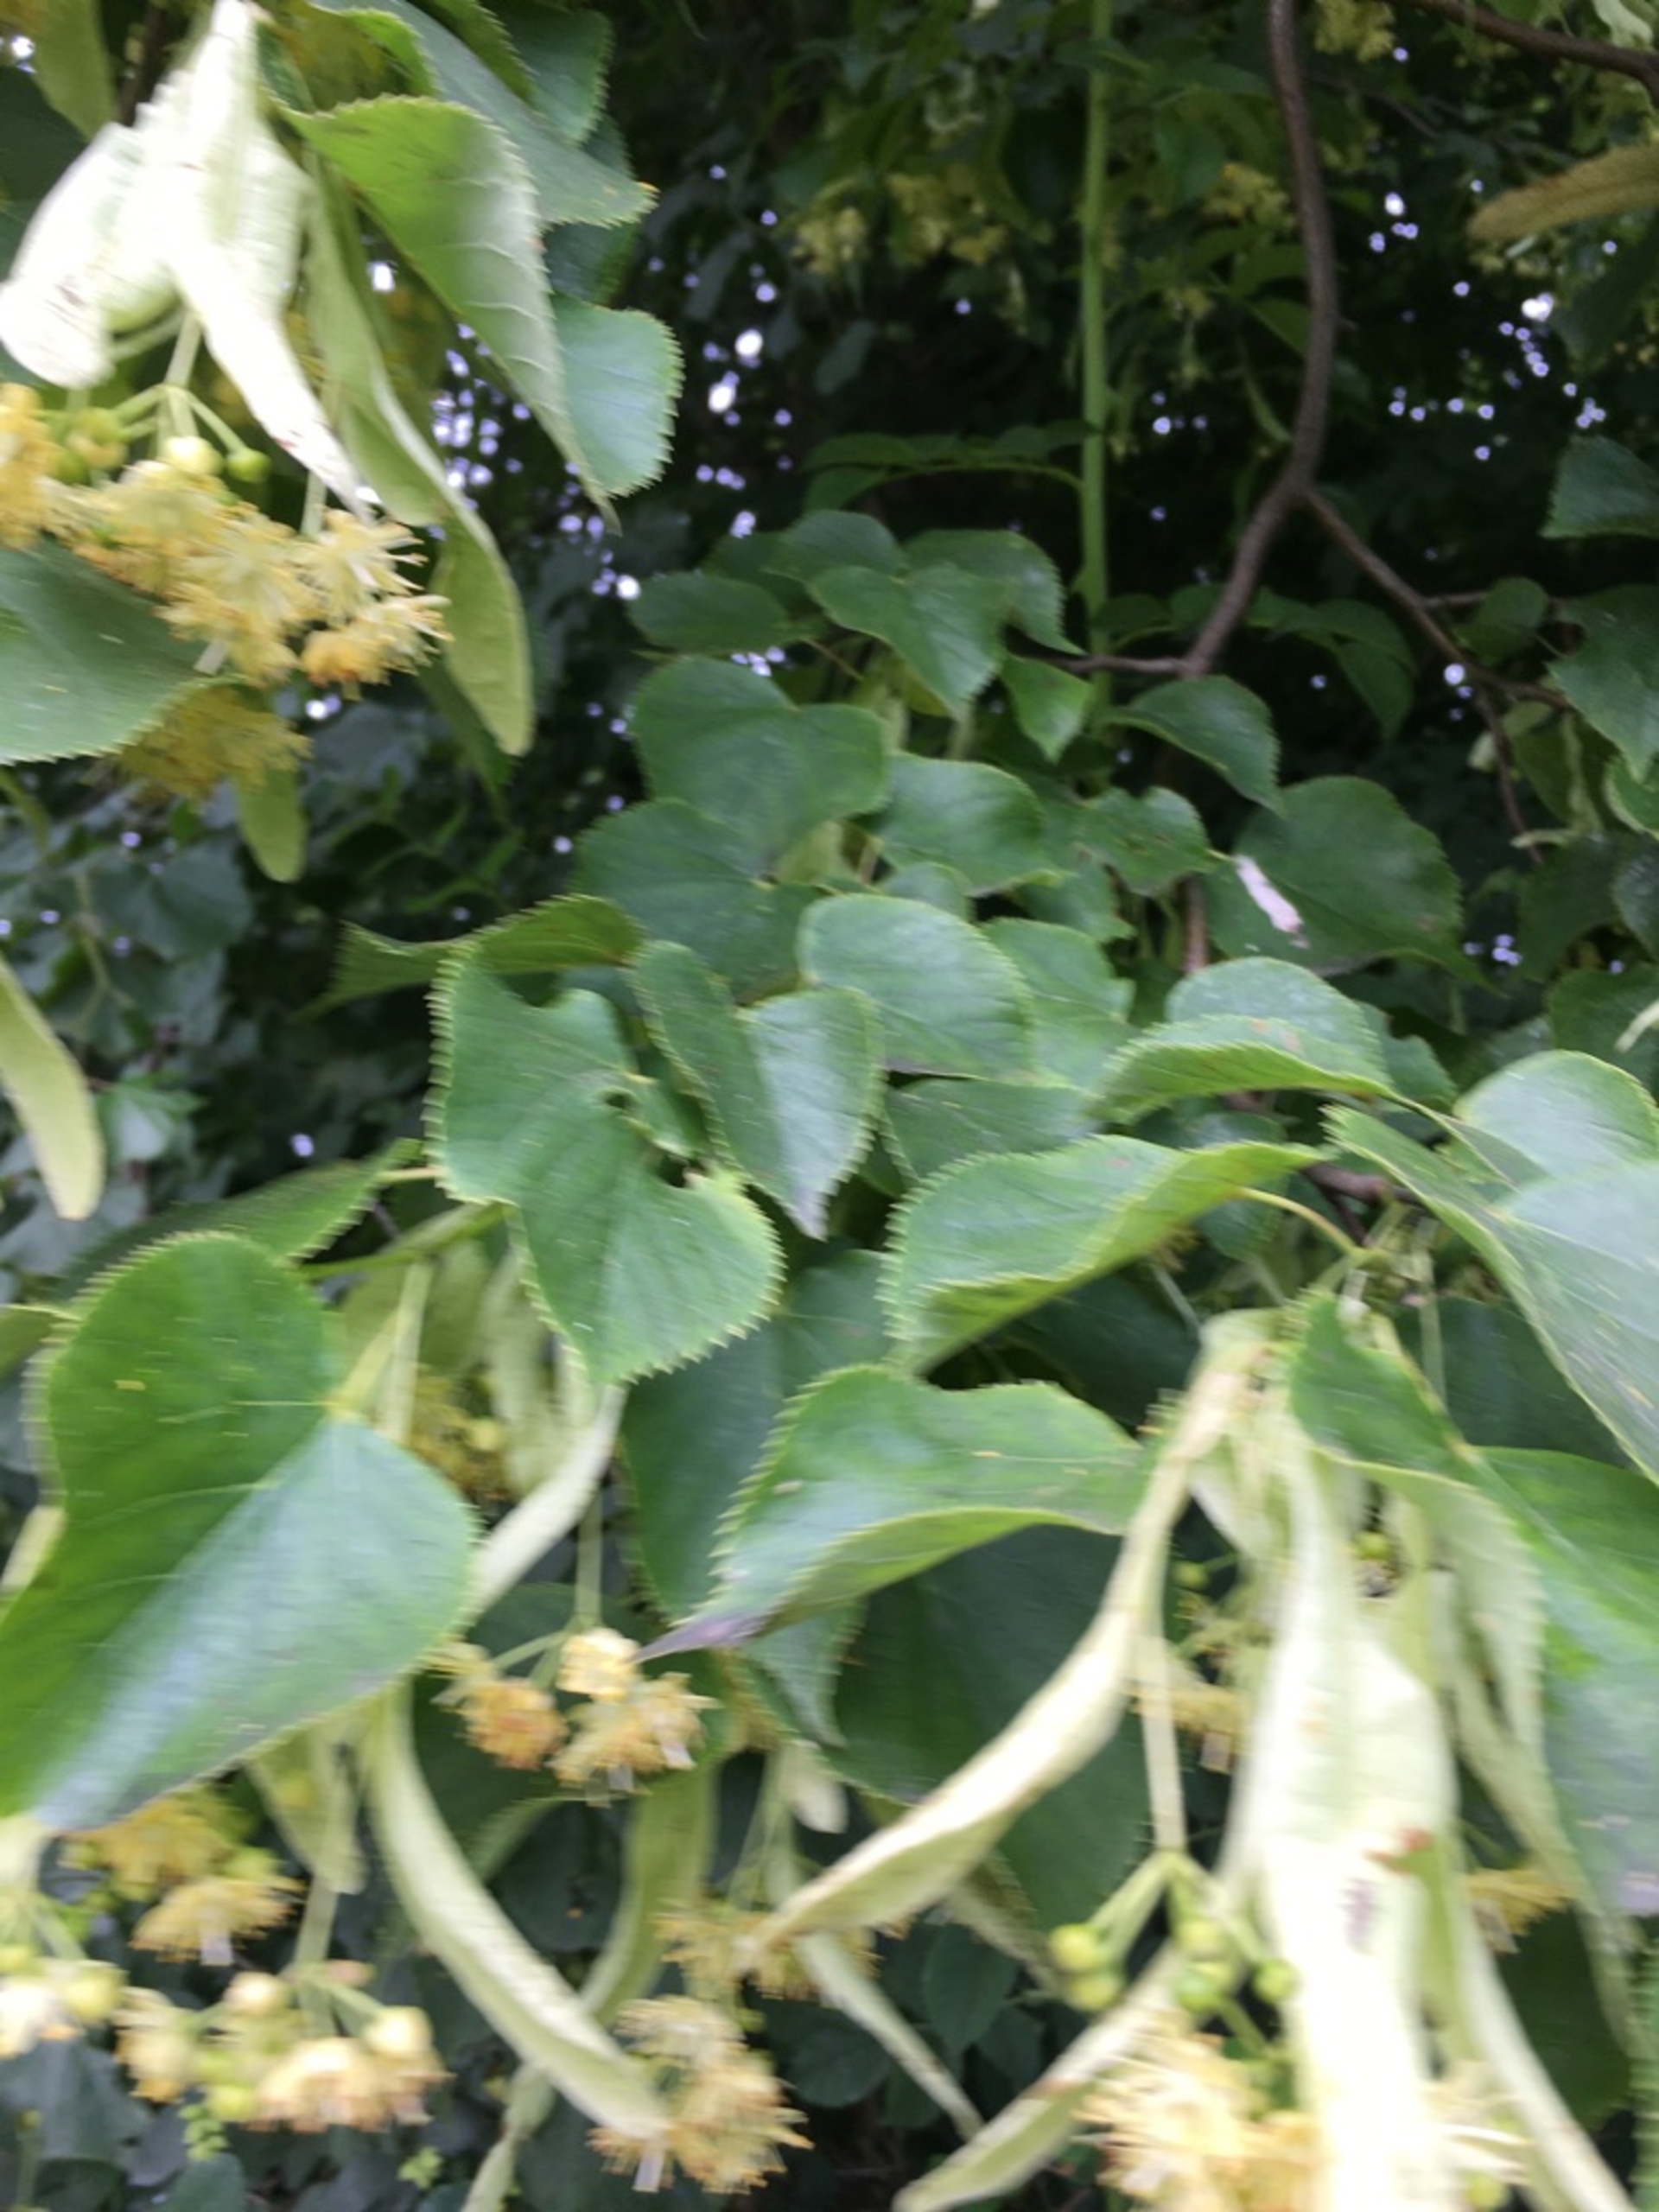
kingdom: Plantae
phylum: Tracheophyta
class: Magnoliopsida
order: Malvales
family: Malvaceae
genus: Tilia
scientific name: Tilia
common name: Lindeslægten
